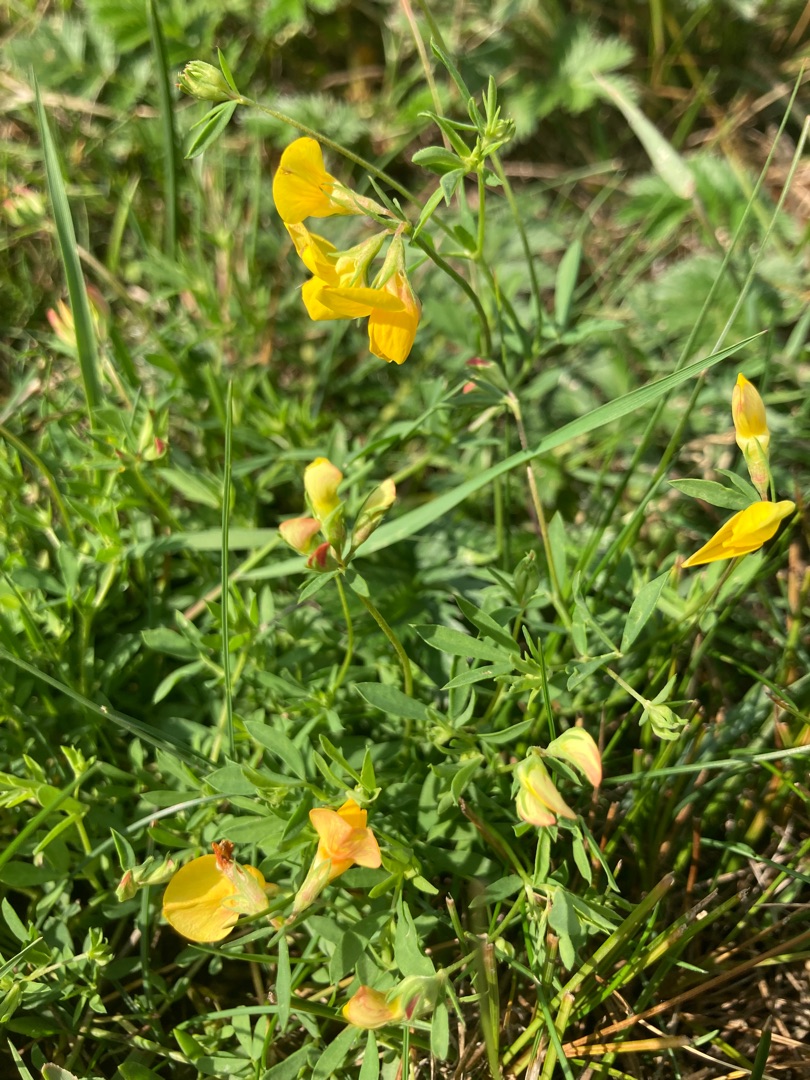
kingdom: Plantae
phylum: Tracheophyta
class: Magnoliopsida
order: Fabales
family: Fabaceae
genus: Lotus
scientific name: Lotus tenuis
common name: Smalbladet kællingetand
